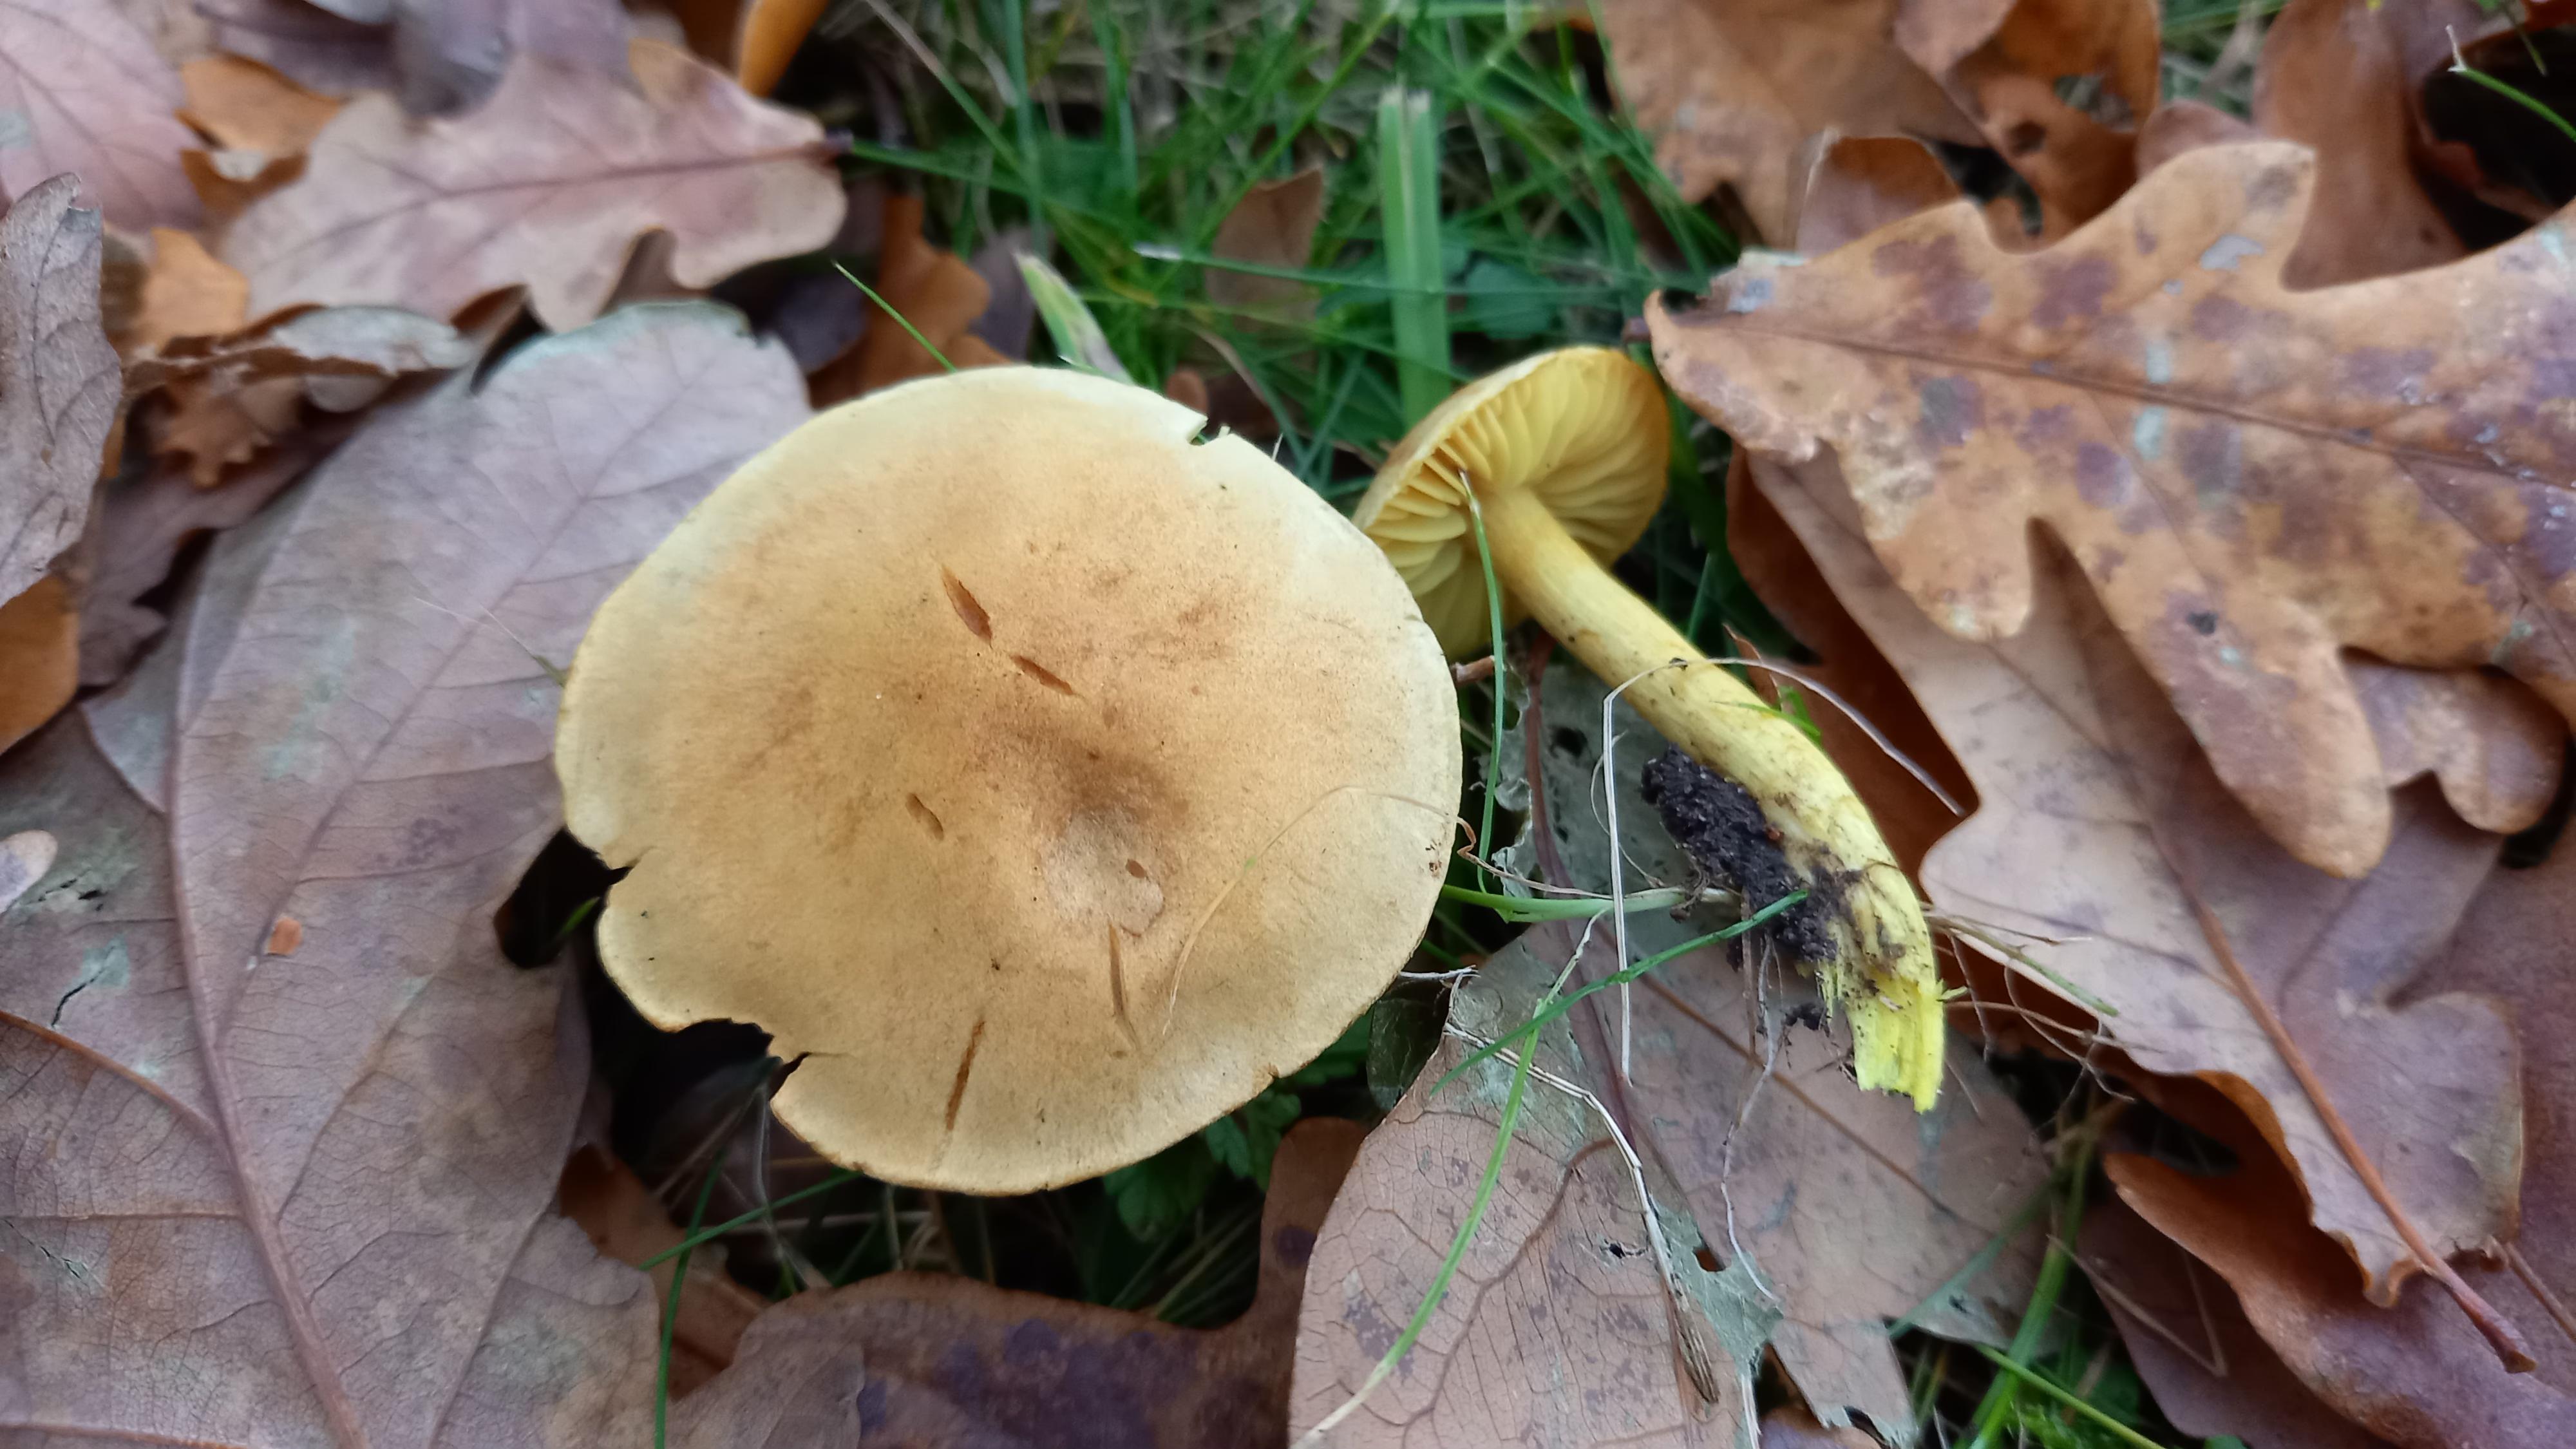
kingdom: Fungi
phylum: Basidiomycota
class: Agaricomycetes
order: Agaricales
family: Tricholomataceae
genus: Tricholoma
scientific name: Tricholoma sulphureum
